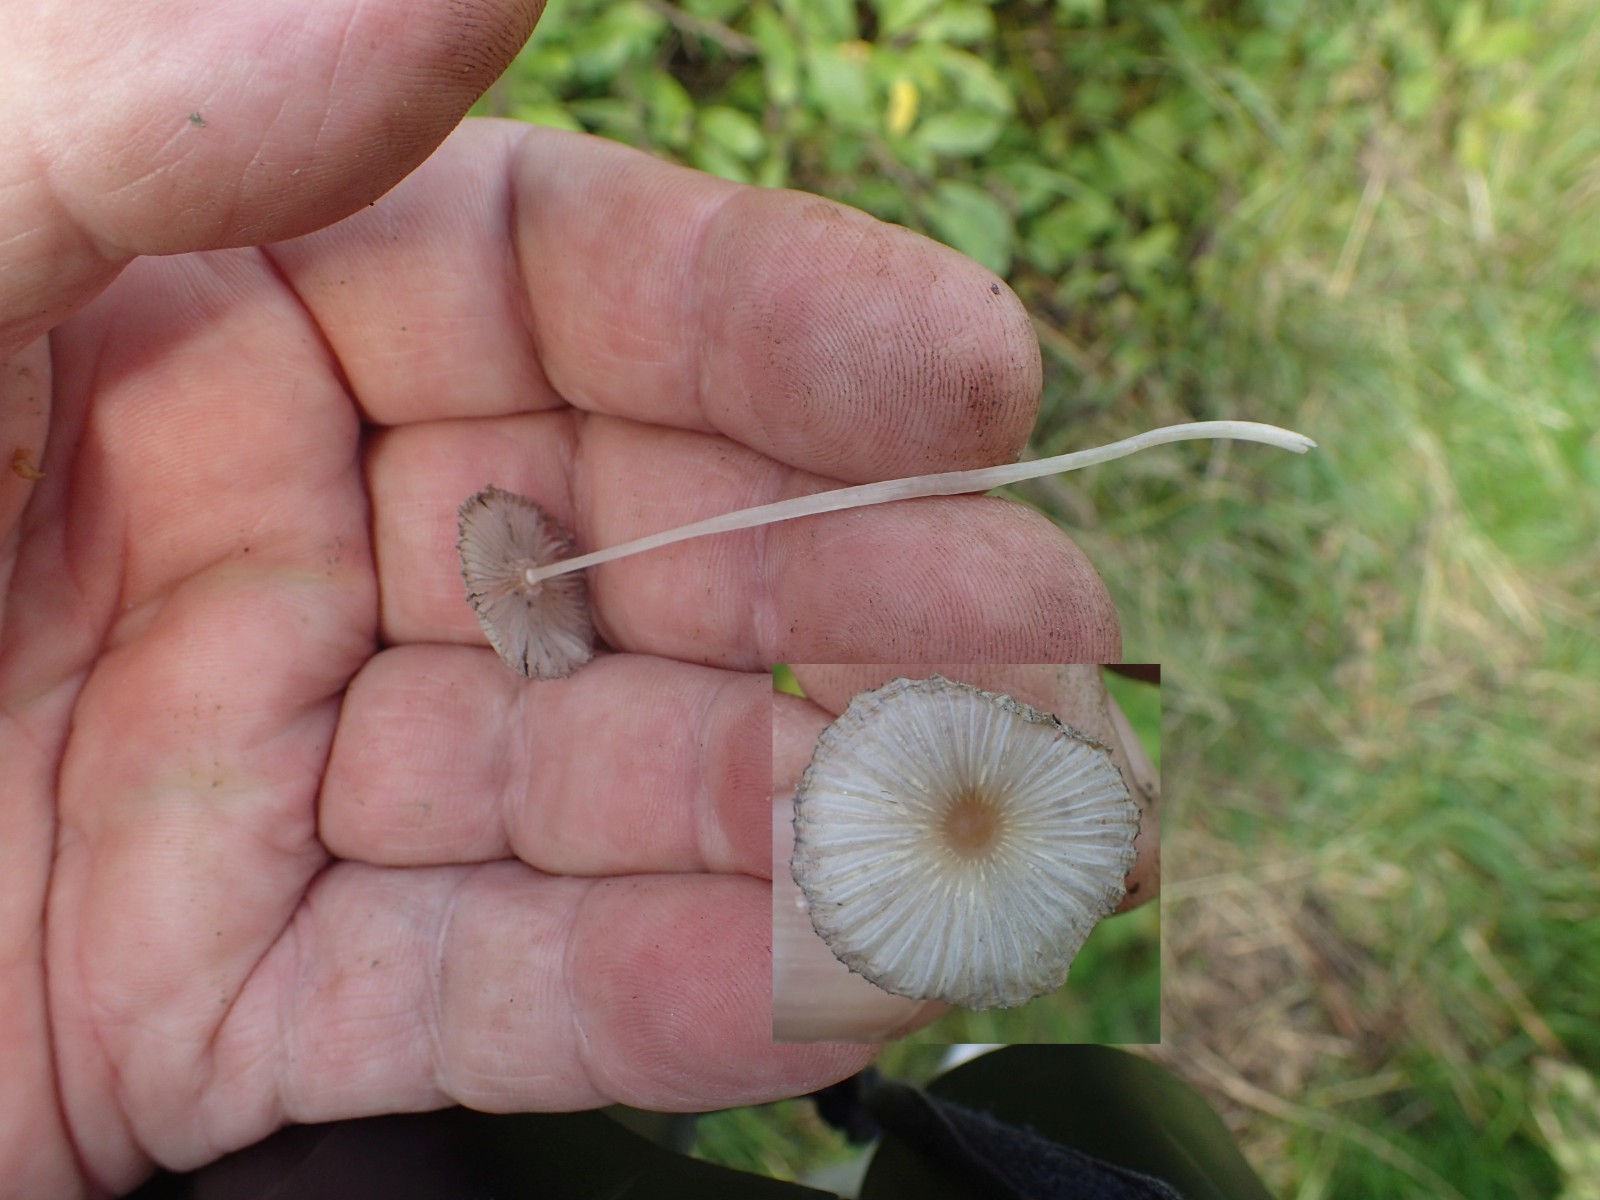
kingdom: Fungi
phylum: Basidiomycota
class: Agaricomycetes
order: Agaricales
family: Psathyrellaceae
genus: Parasola
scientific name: Parasola
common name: hjulhat
